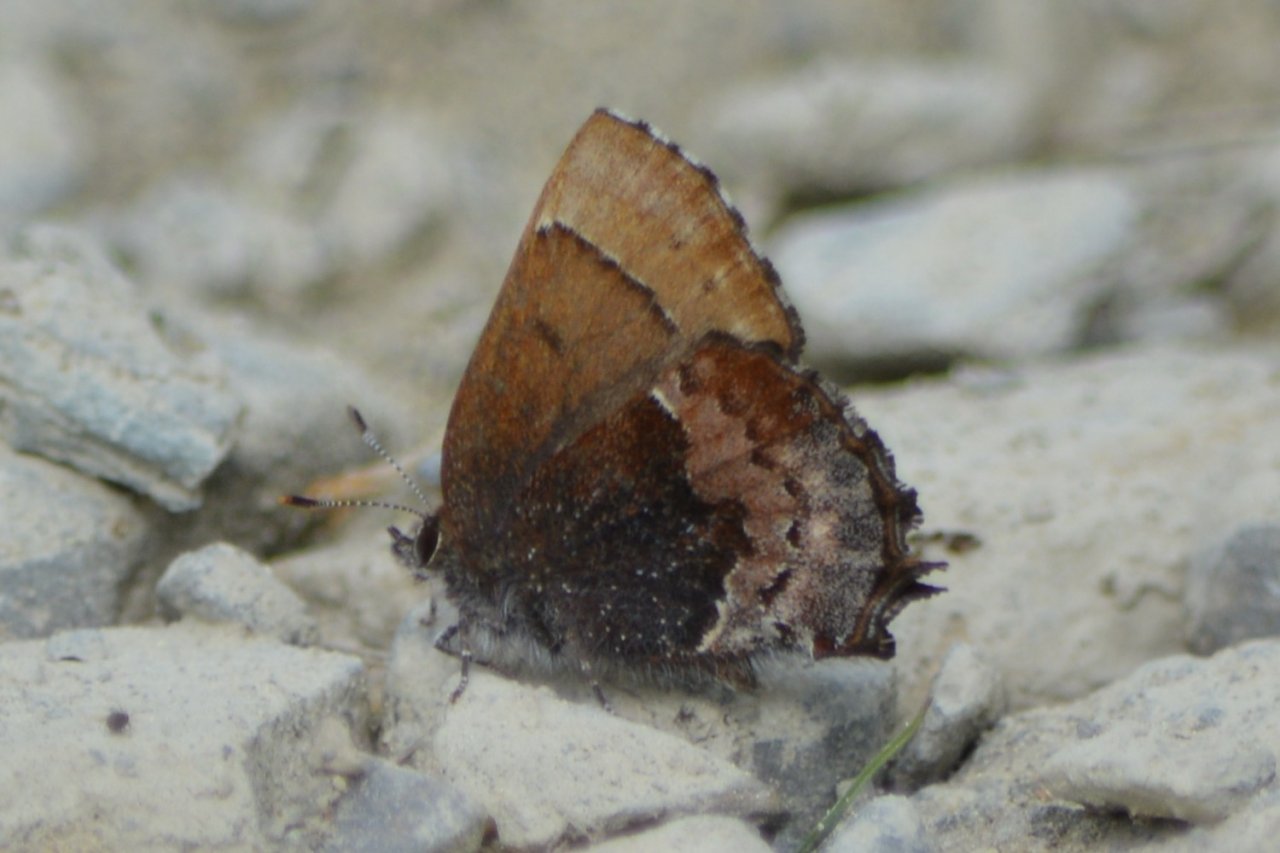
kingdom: Animalia
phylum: Arthropoda
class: Insecta
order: Lepidoptera
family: Lycaenidae
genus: Incisalia
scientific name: Incisalia henrici
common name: Henry's Elfin
